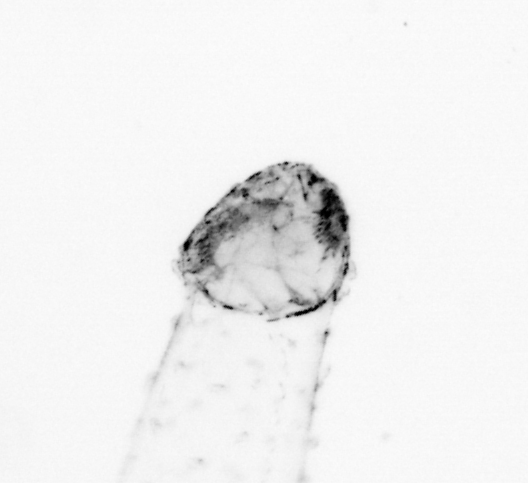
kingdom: Animalia
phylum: Chaetognatha
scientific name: Chaetognatha
